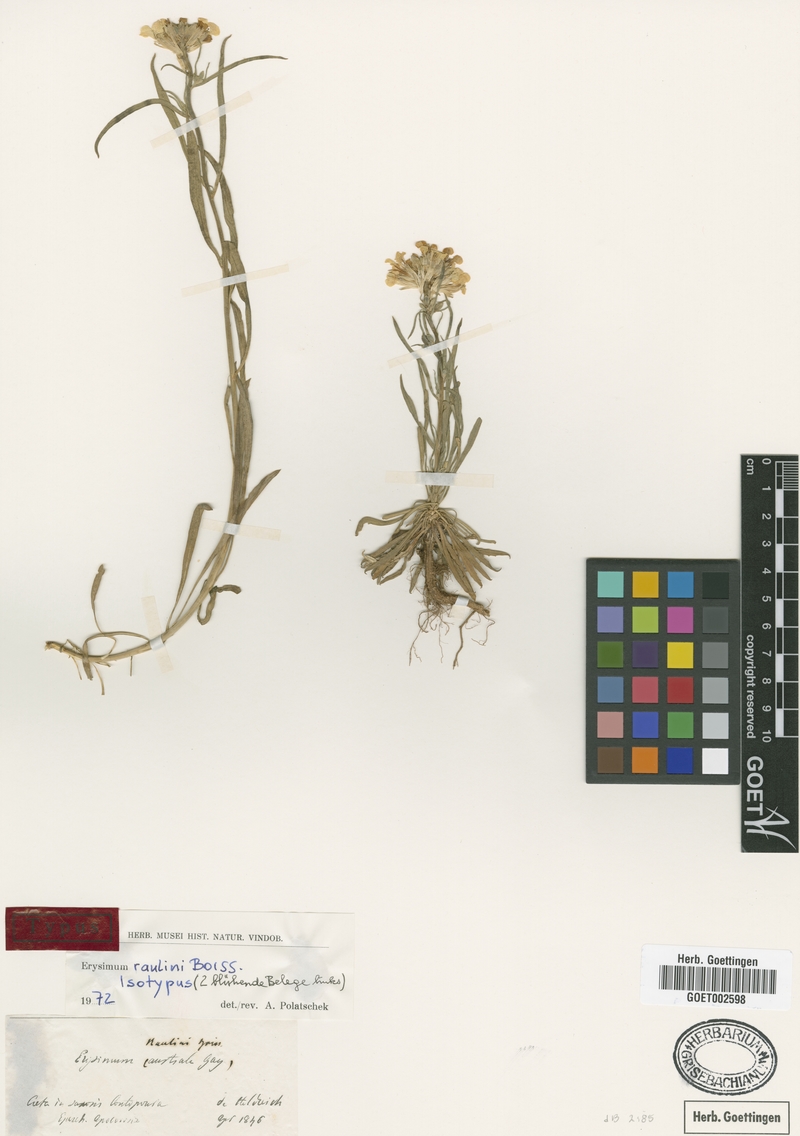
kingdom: Plantae
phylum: Tracheophyta
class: Magnoliopsida
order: Brassicales
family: Brassicaceae
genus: Erysimum
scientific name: Erysimum raulinii
